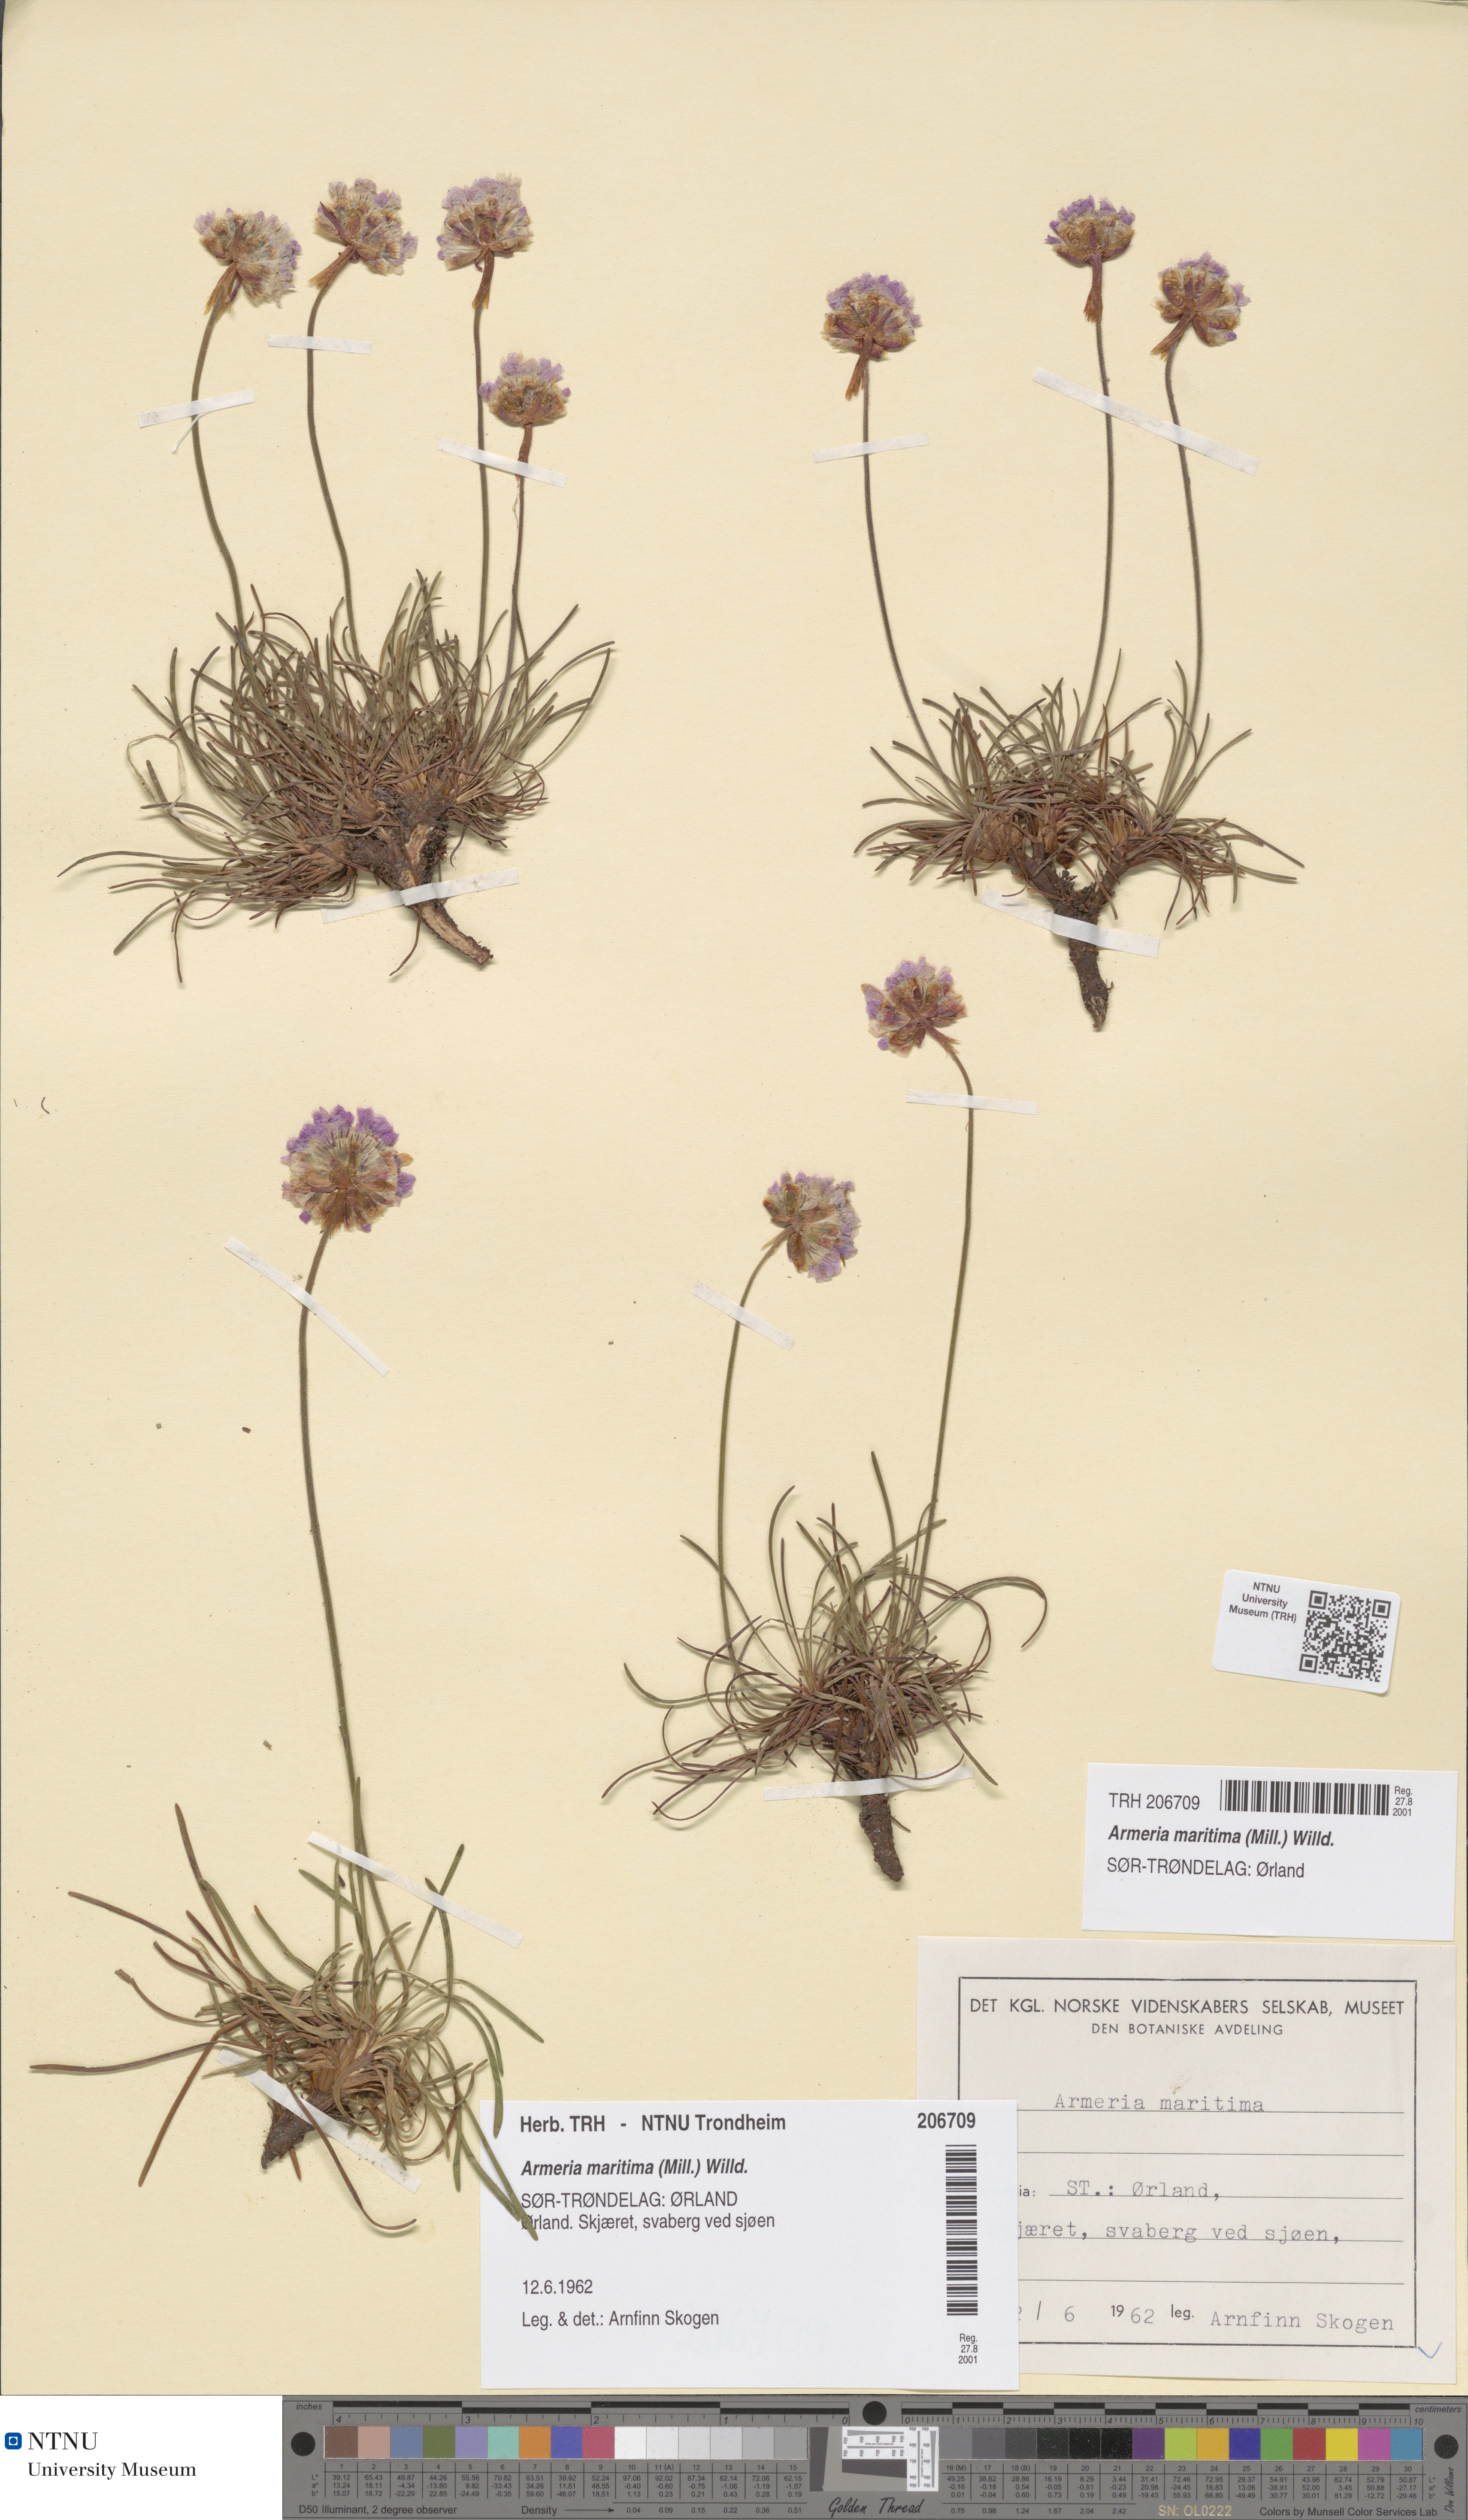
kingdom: Plantae
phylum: Tracheophyta
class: Magnoliopsida
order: Caryophyllales
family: Plumbaginaceae
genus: Armeria
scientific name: Armeria maritima
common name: Thrift
